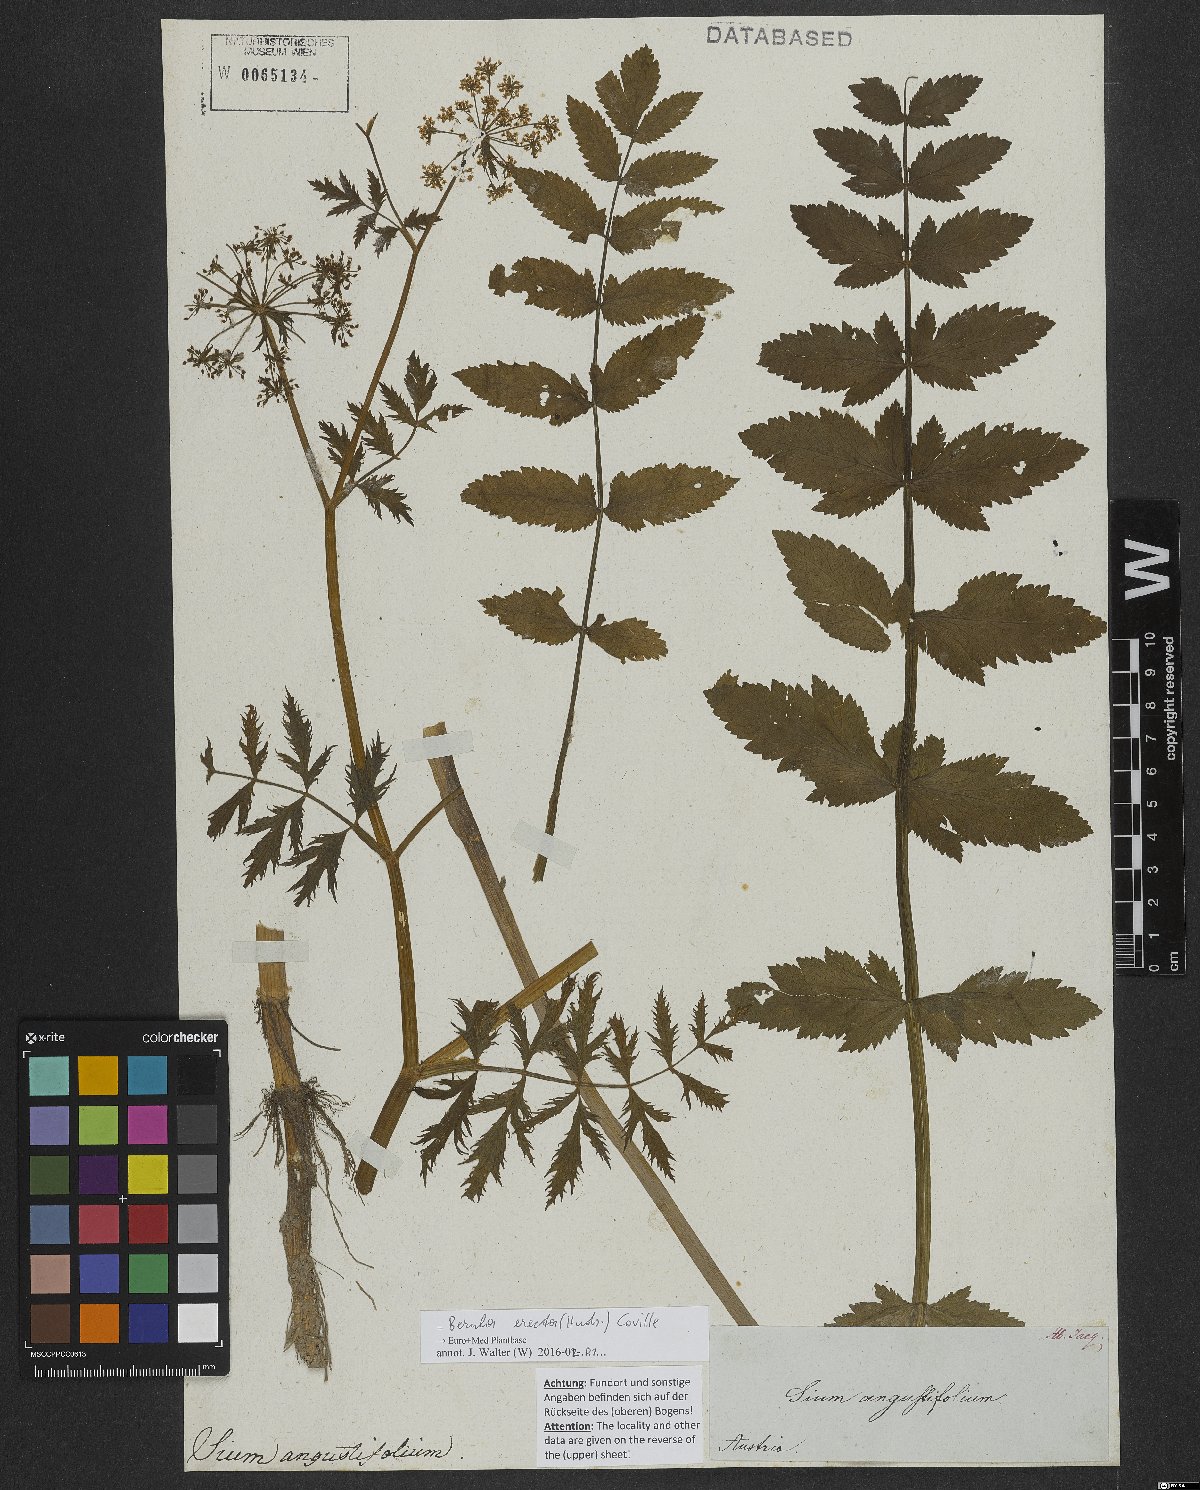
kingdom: Plantae
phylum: Tracheophyta
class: Magnoliopsida
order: Apiales
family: Apiaceae
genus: Berula
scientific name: Berula erecta
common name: Lesser water-parsnip
